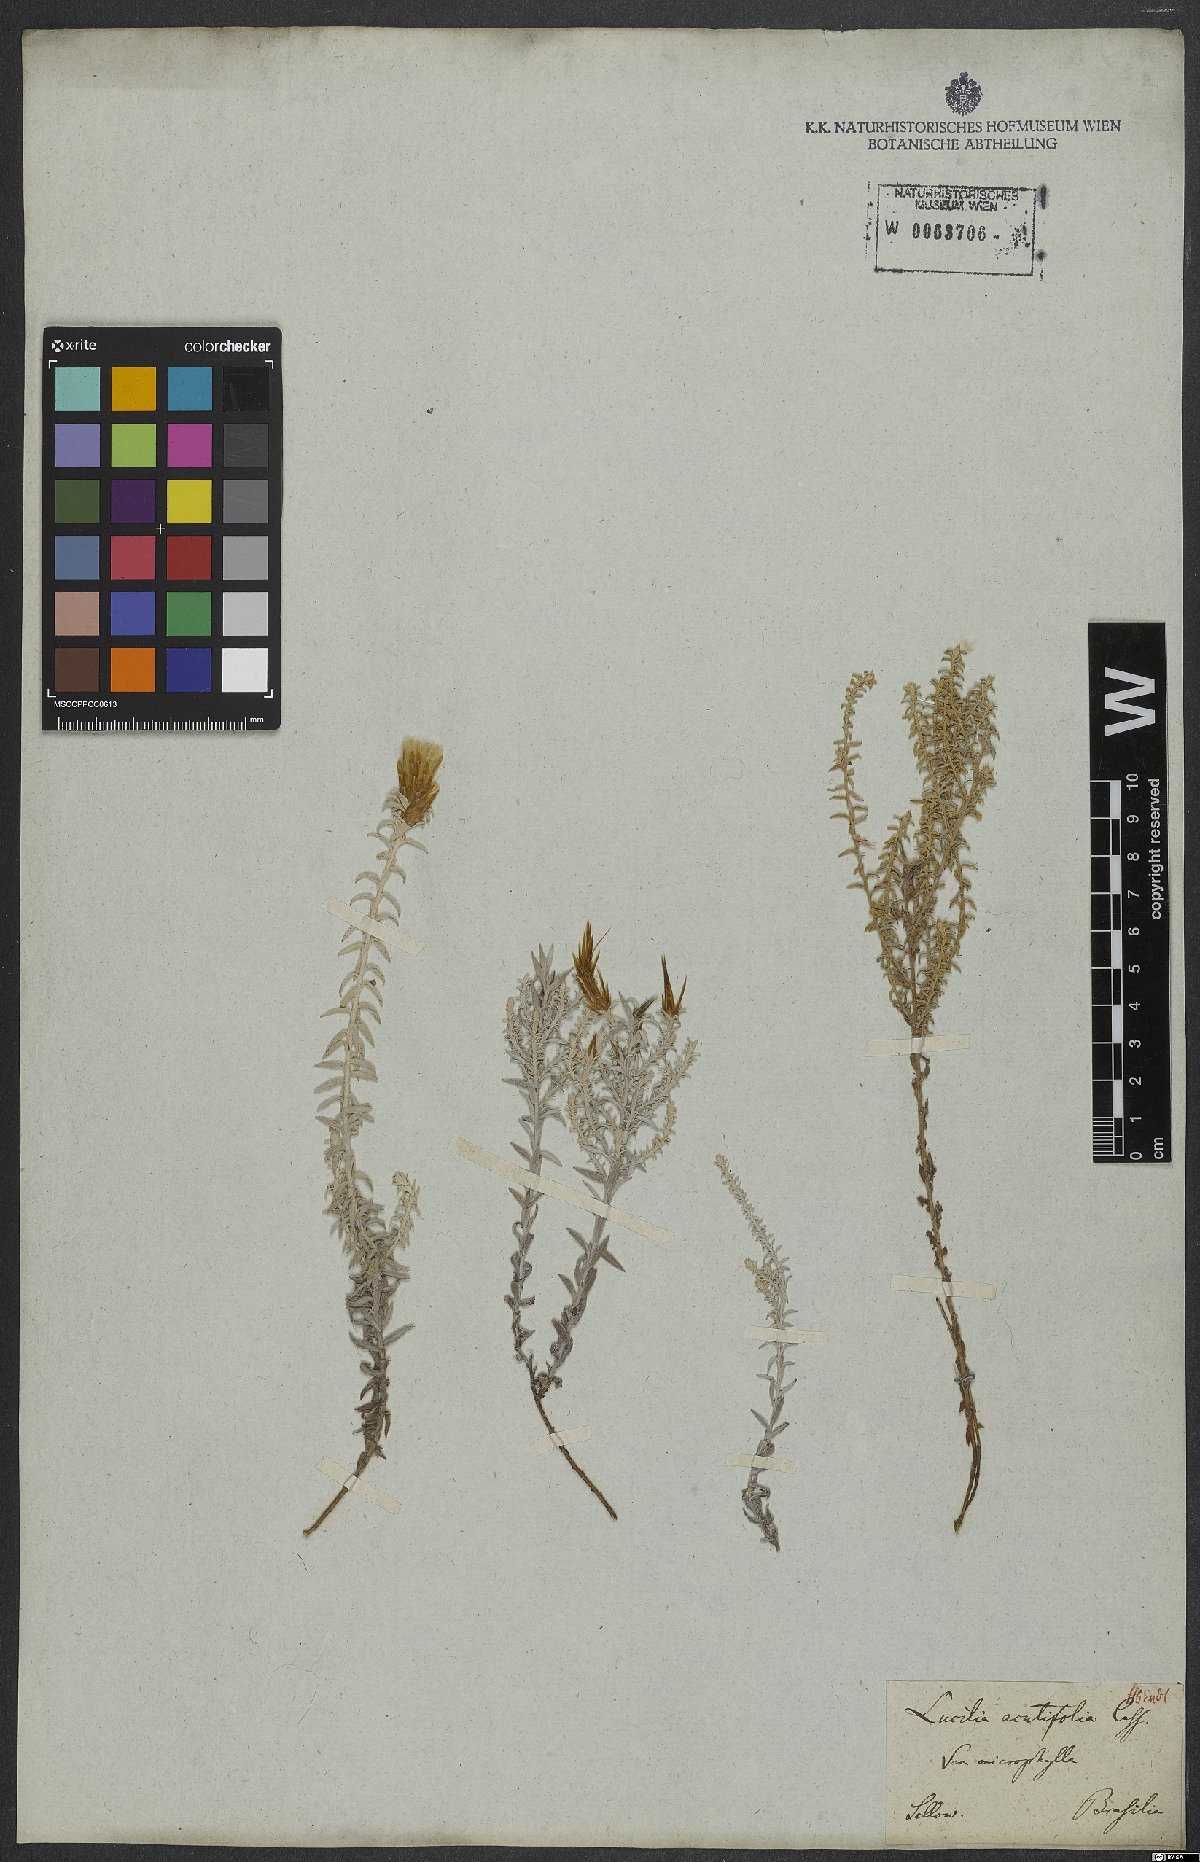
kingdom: Plantae
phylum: Tracheophyta
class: Magnoliopsida
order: Asterales
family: Asteraceae
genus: Lucilia
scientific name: Lucilia acutifolia
